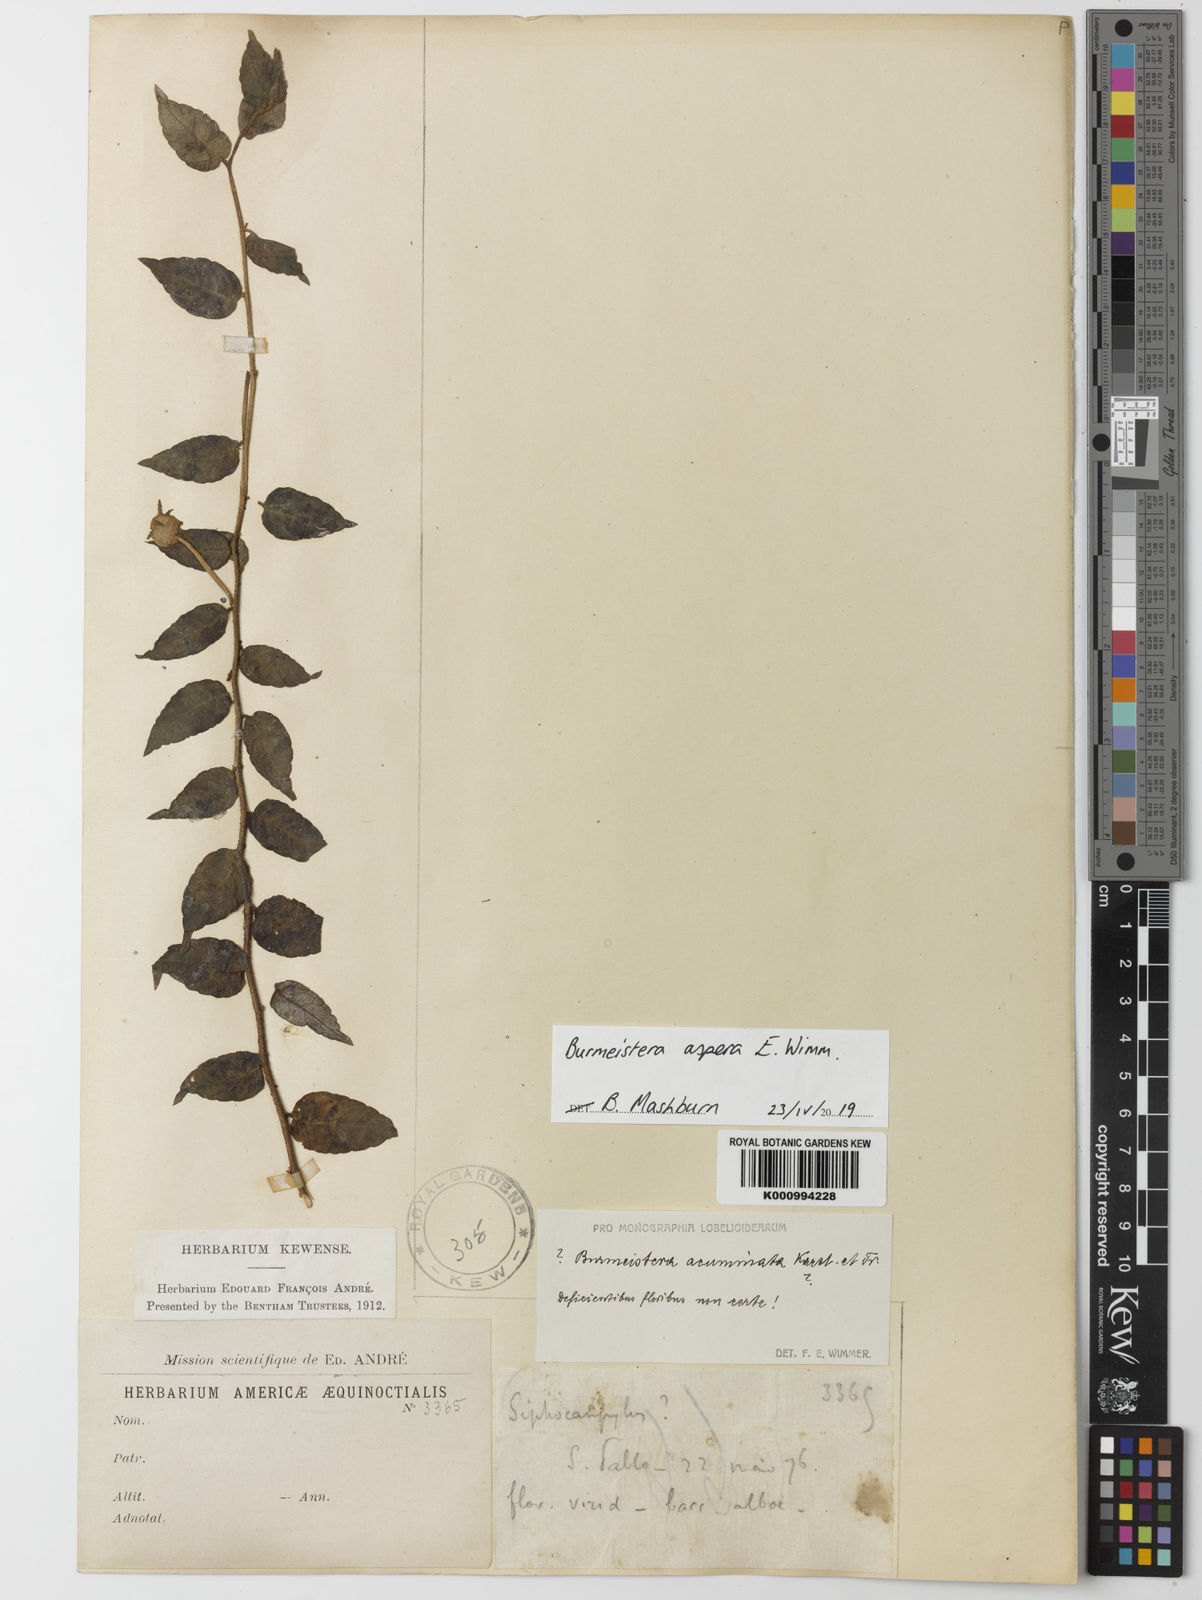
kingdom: Plantae
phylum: Tracheophyta
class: Magnoliopsida
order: Asterales
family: Campanulaceae
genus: Burmeistera
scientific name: Burmeistera aspera
